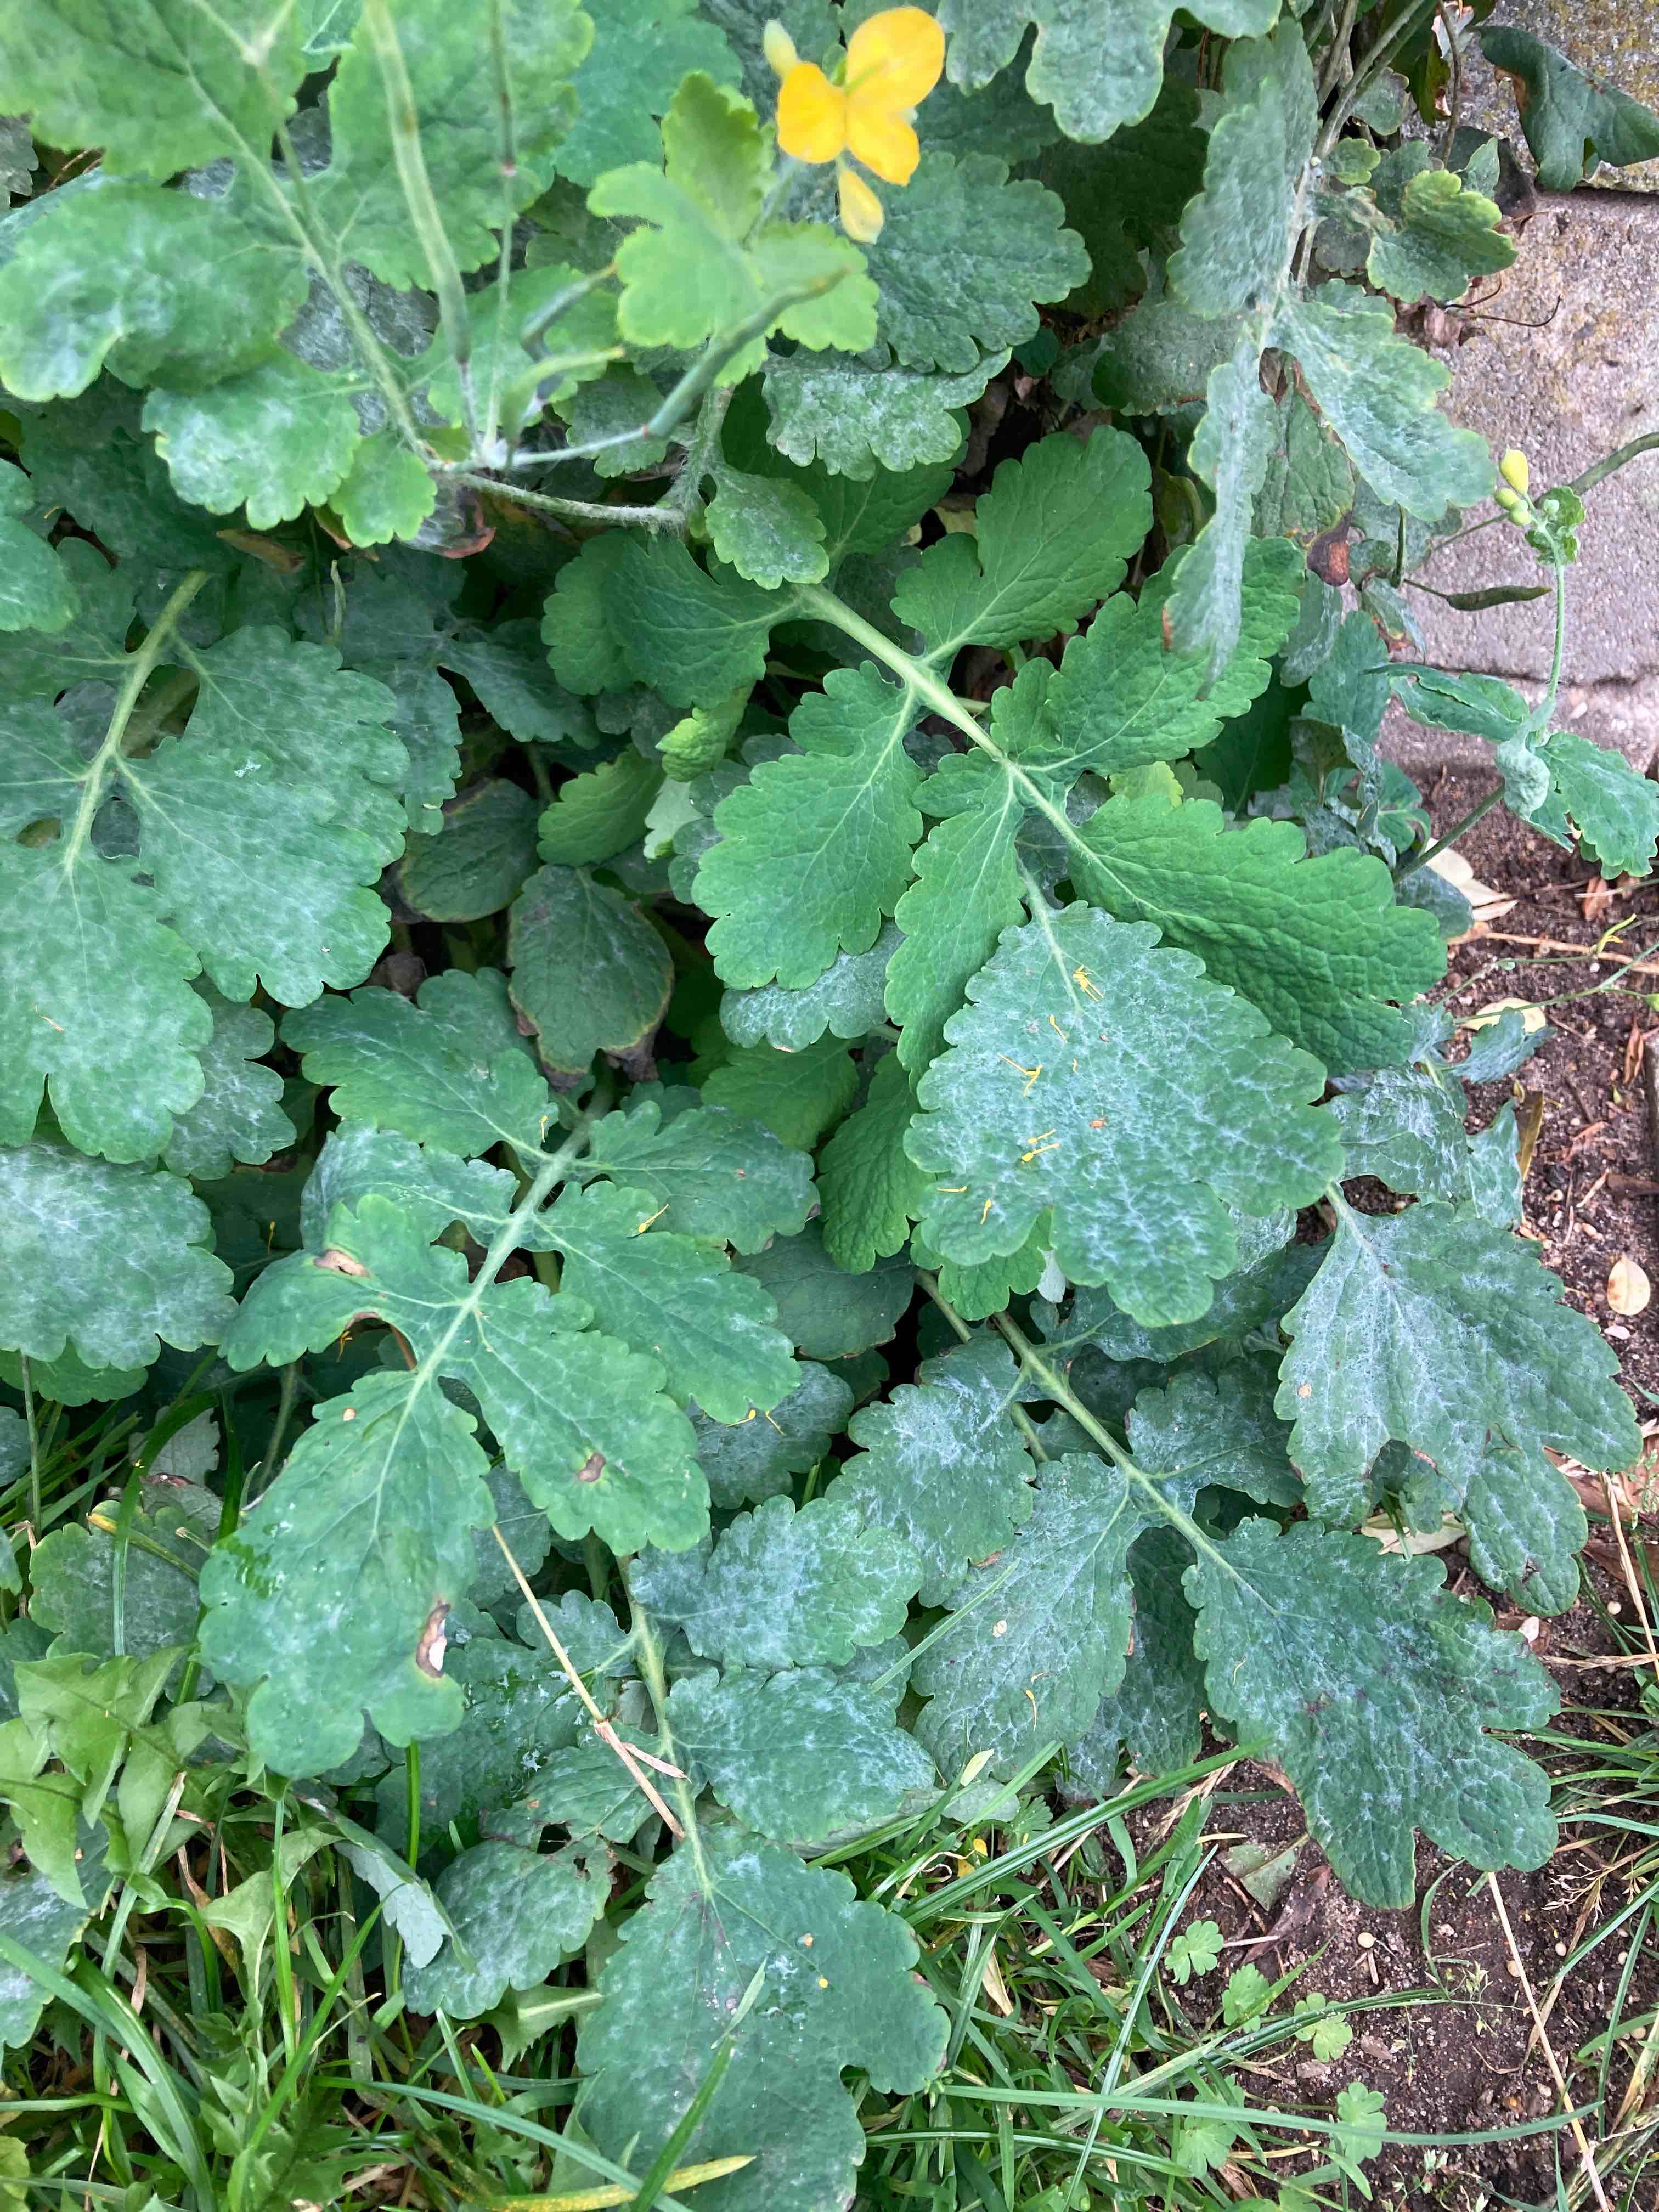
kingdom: Fungi
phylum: Ascomycota
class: Leotiomycetes
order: Helotiales
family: Erysiphaceae
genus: Erysiphe
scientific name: Erysiphe macleayae
